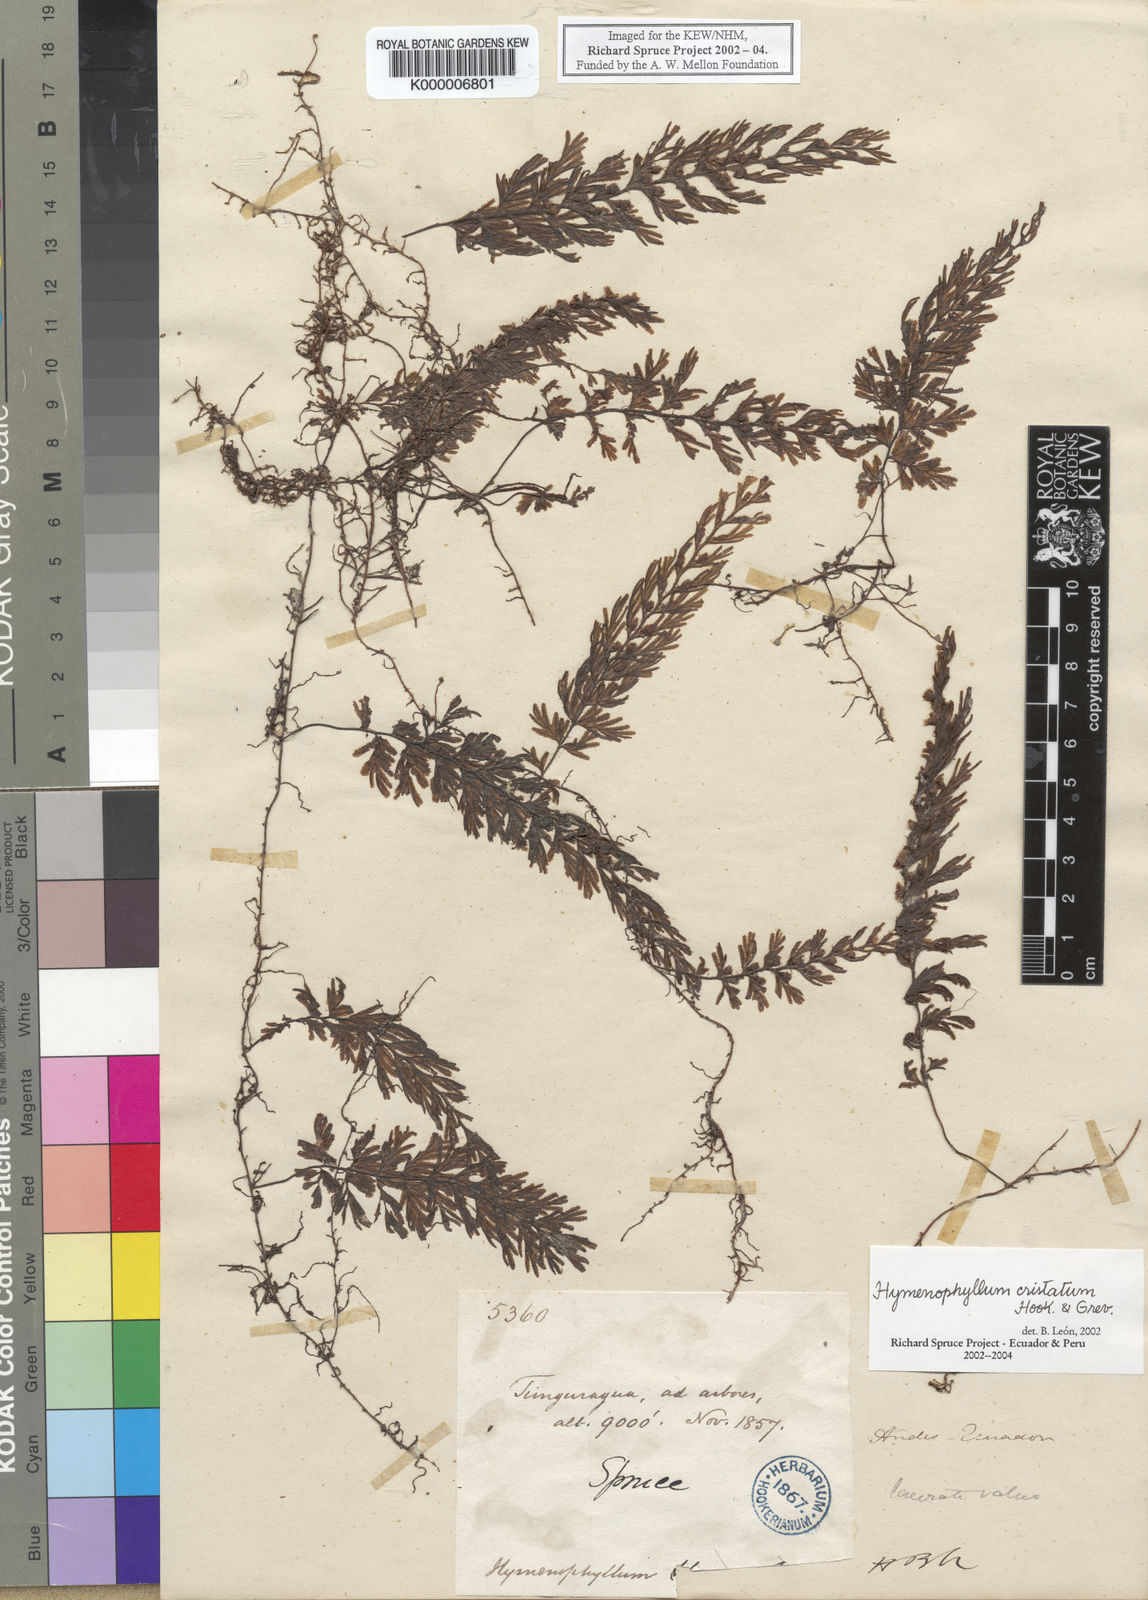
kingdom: Plantae
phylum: Tracheophyta
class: Polypodiopsida
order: Hymenophyllales
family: Hymenophyllaceae
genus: Hymenophyllum
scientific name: Hymenophyllum cristatum
